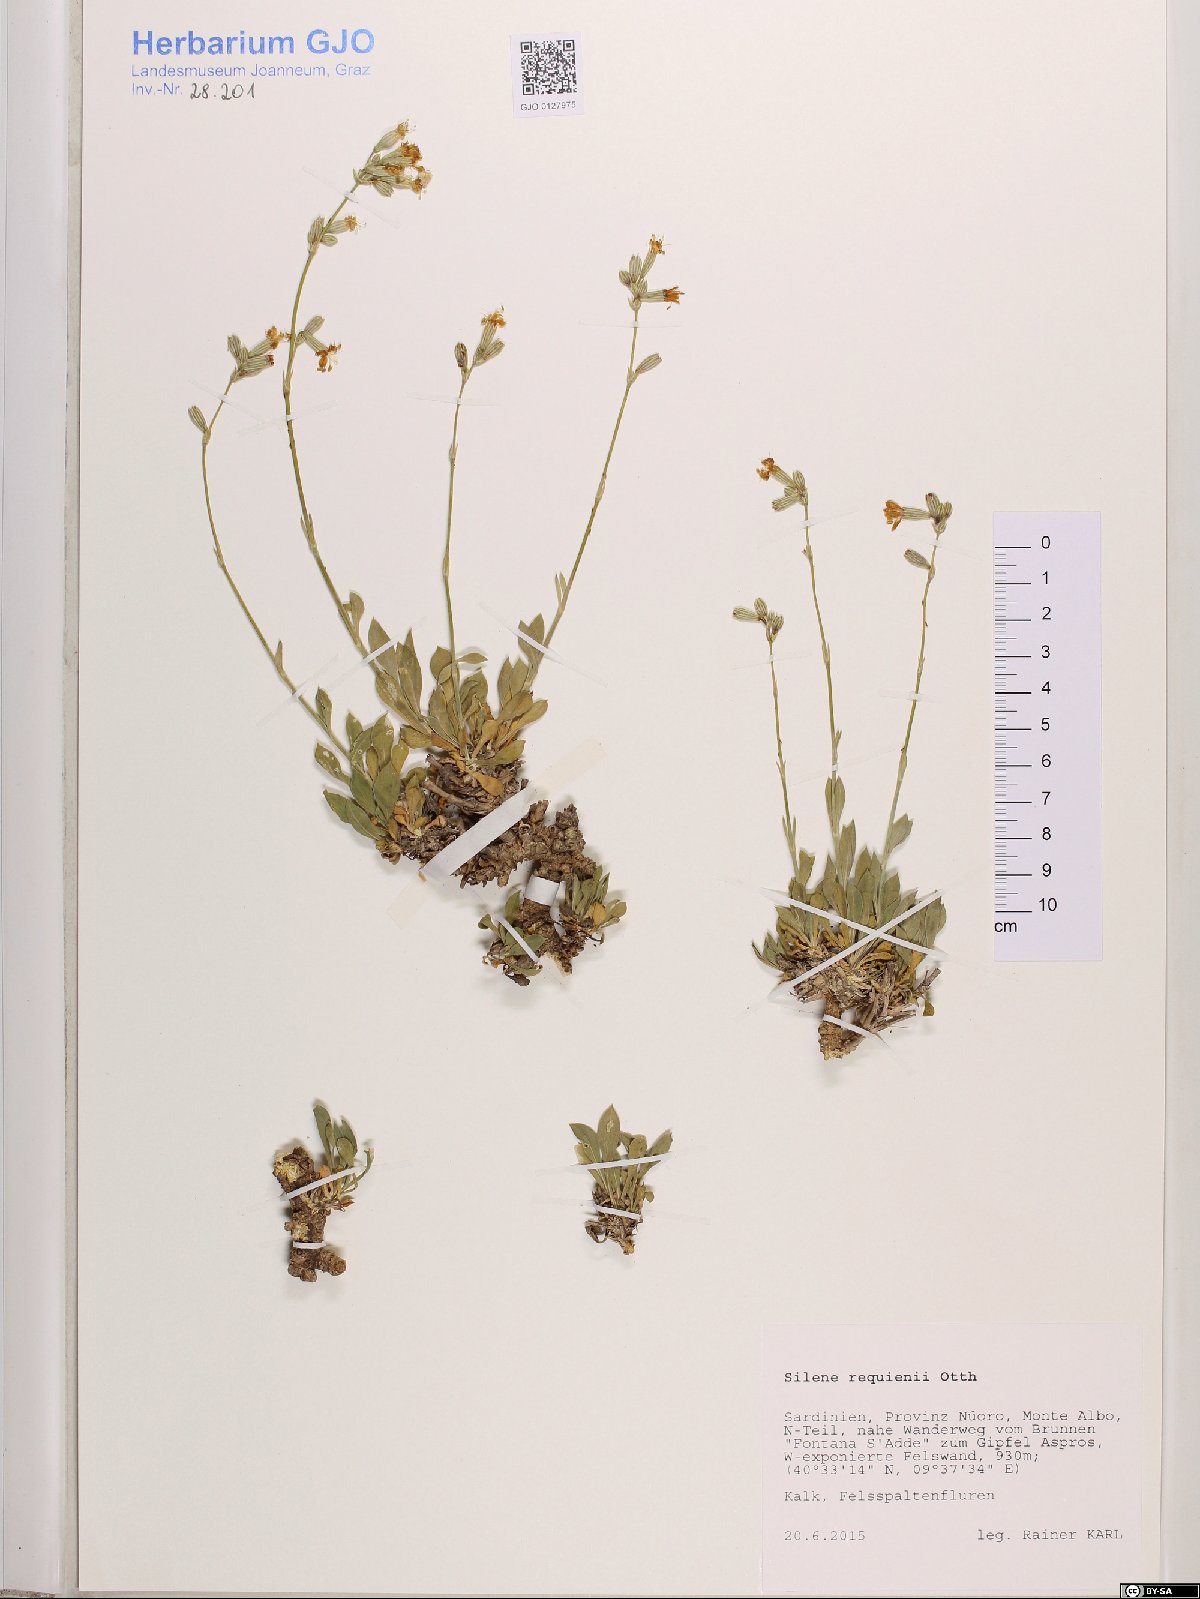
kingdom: Plantae
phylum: Tracheophyta
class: Magnoliopsida
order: Caryophyllales
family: Caryophyllaceae
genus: Silene
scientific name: Silene requienii
